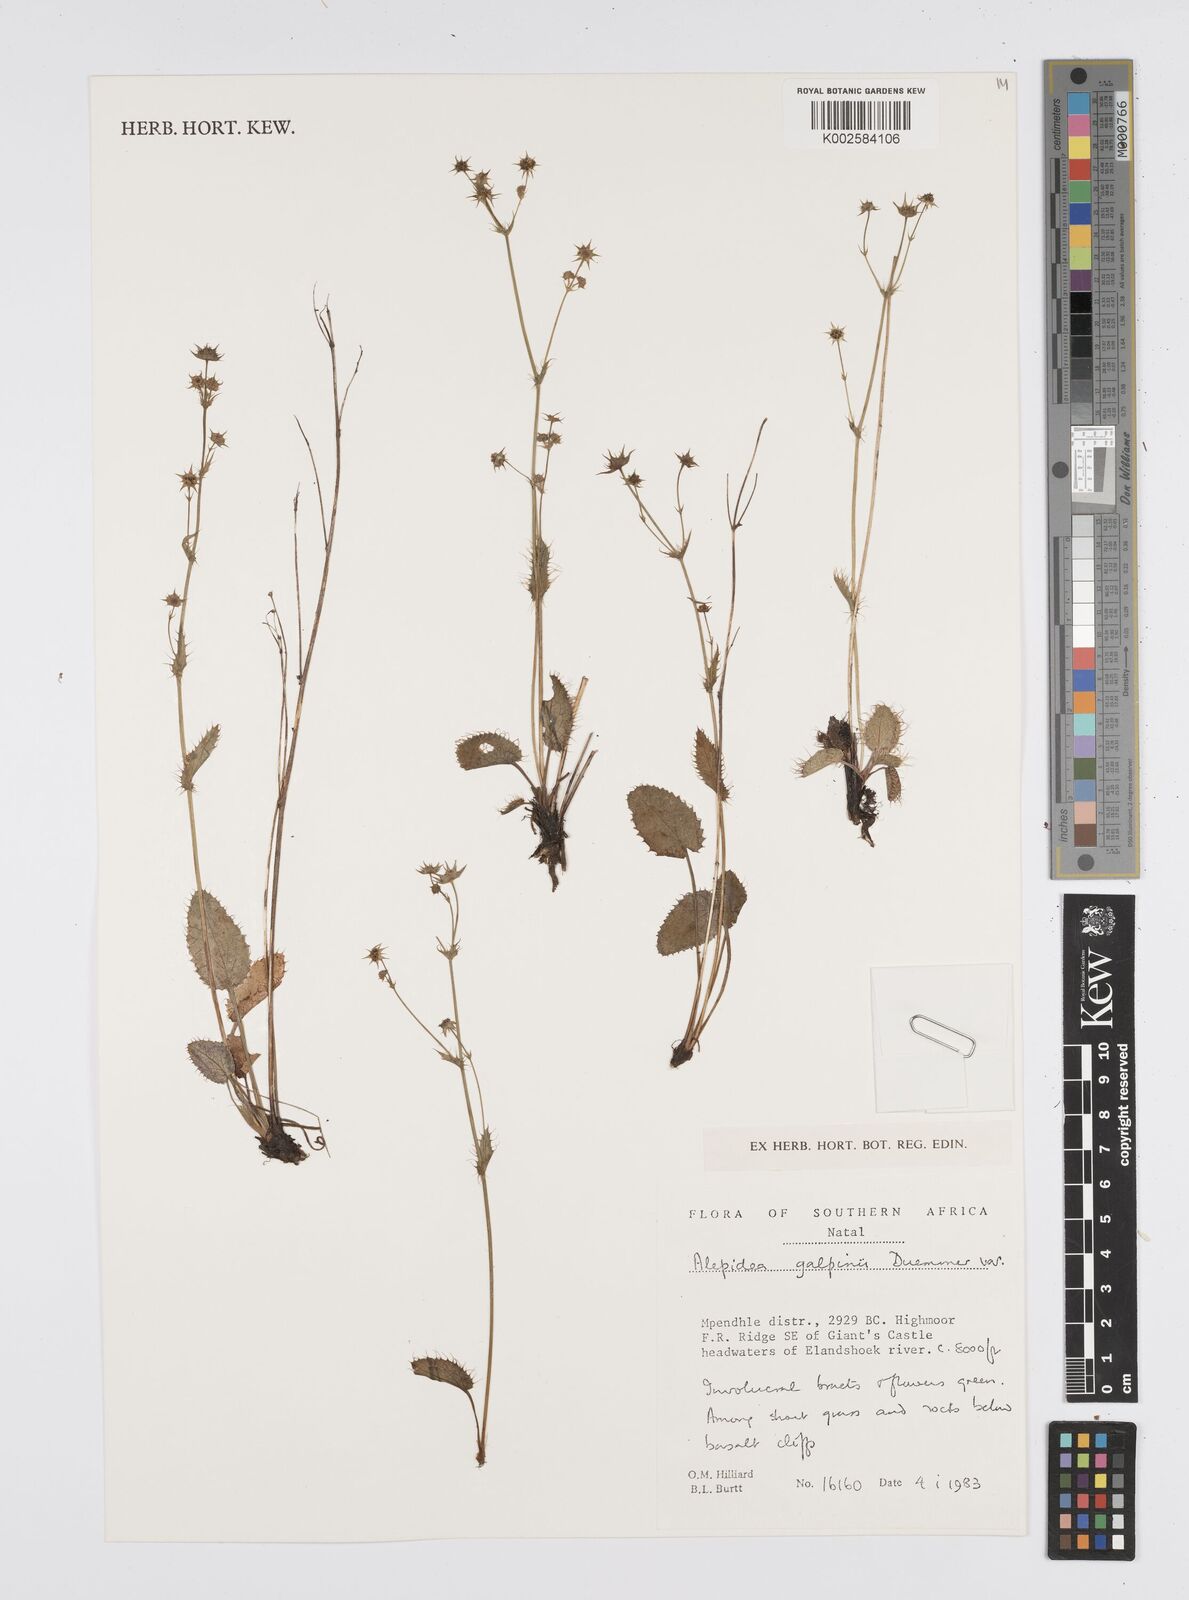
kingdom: Plantae
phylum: Tracheophyta
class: Magnoliopsida
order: Apiales
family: Apiaceae
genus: Alepidea
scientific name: Alepidea galpinii
